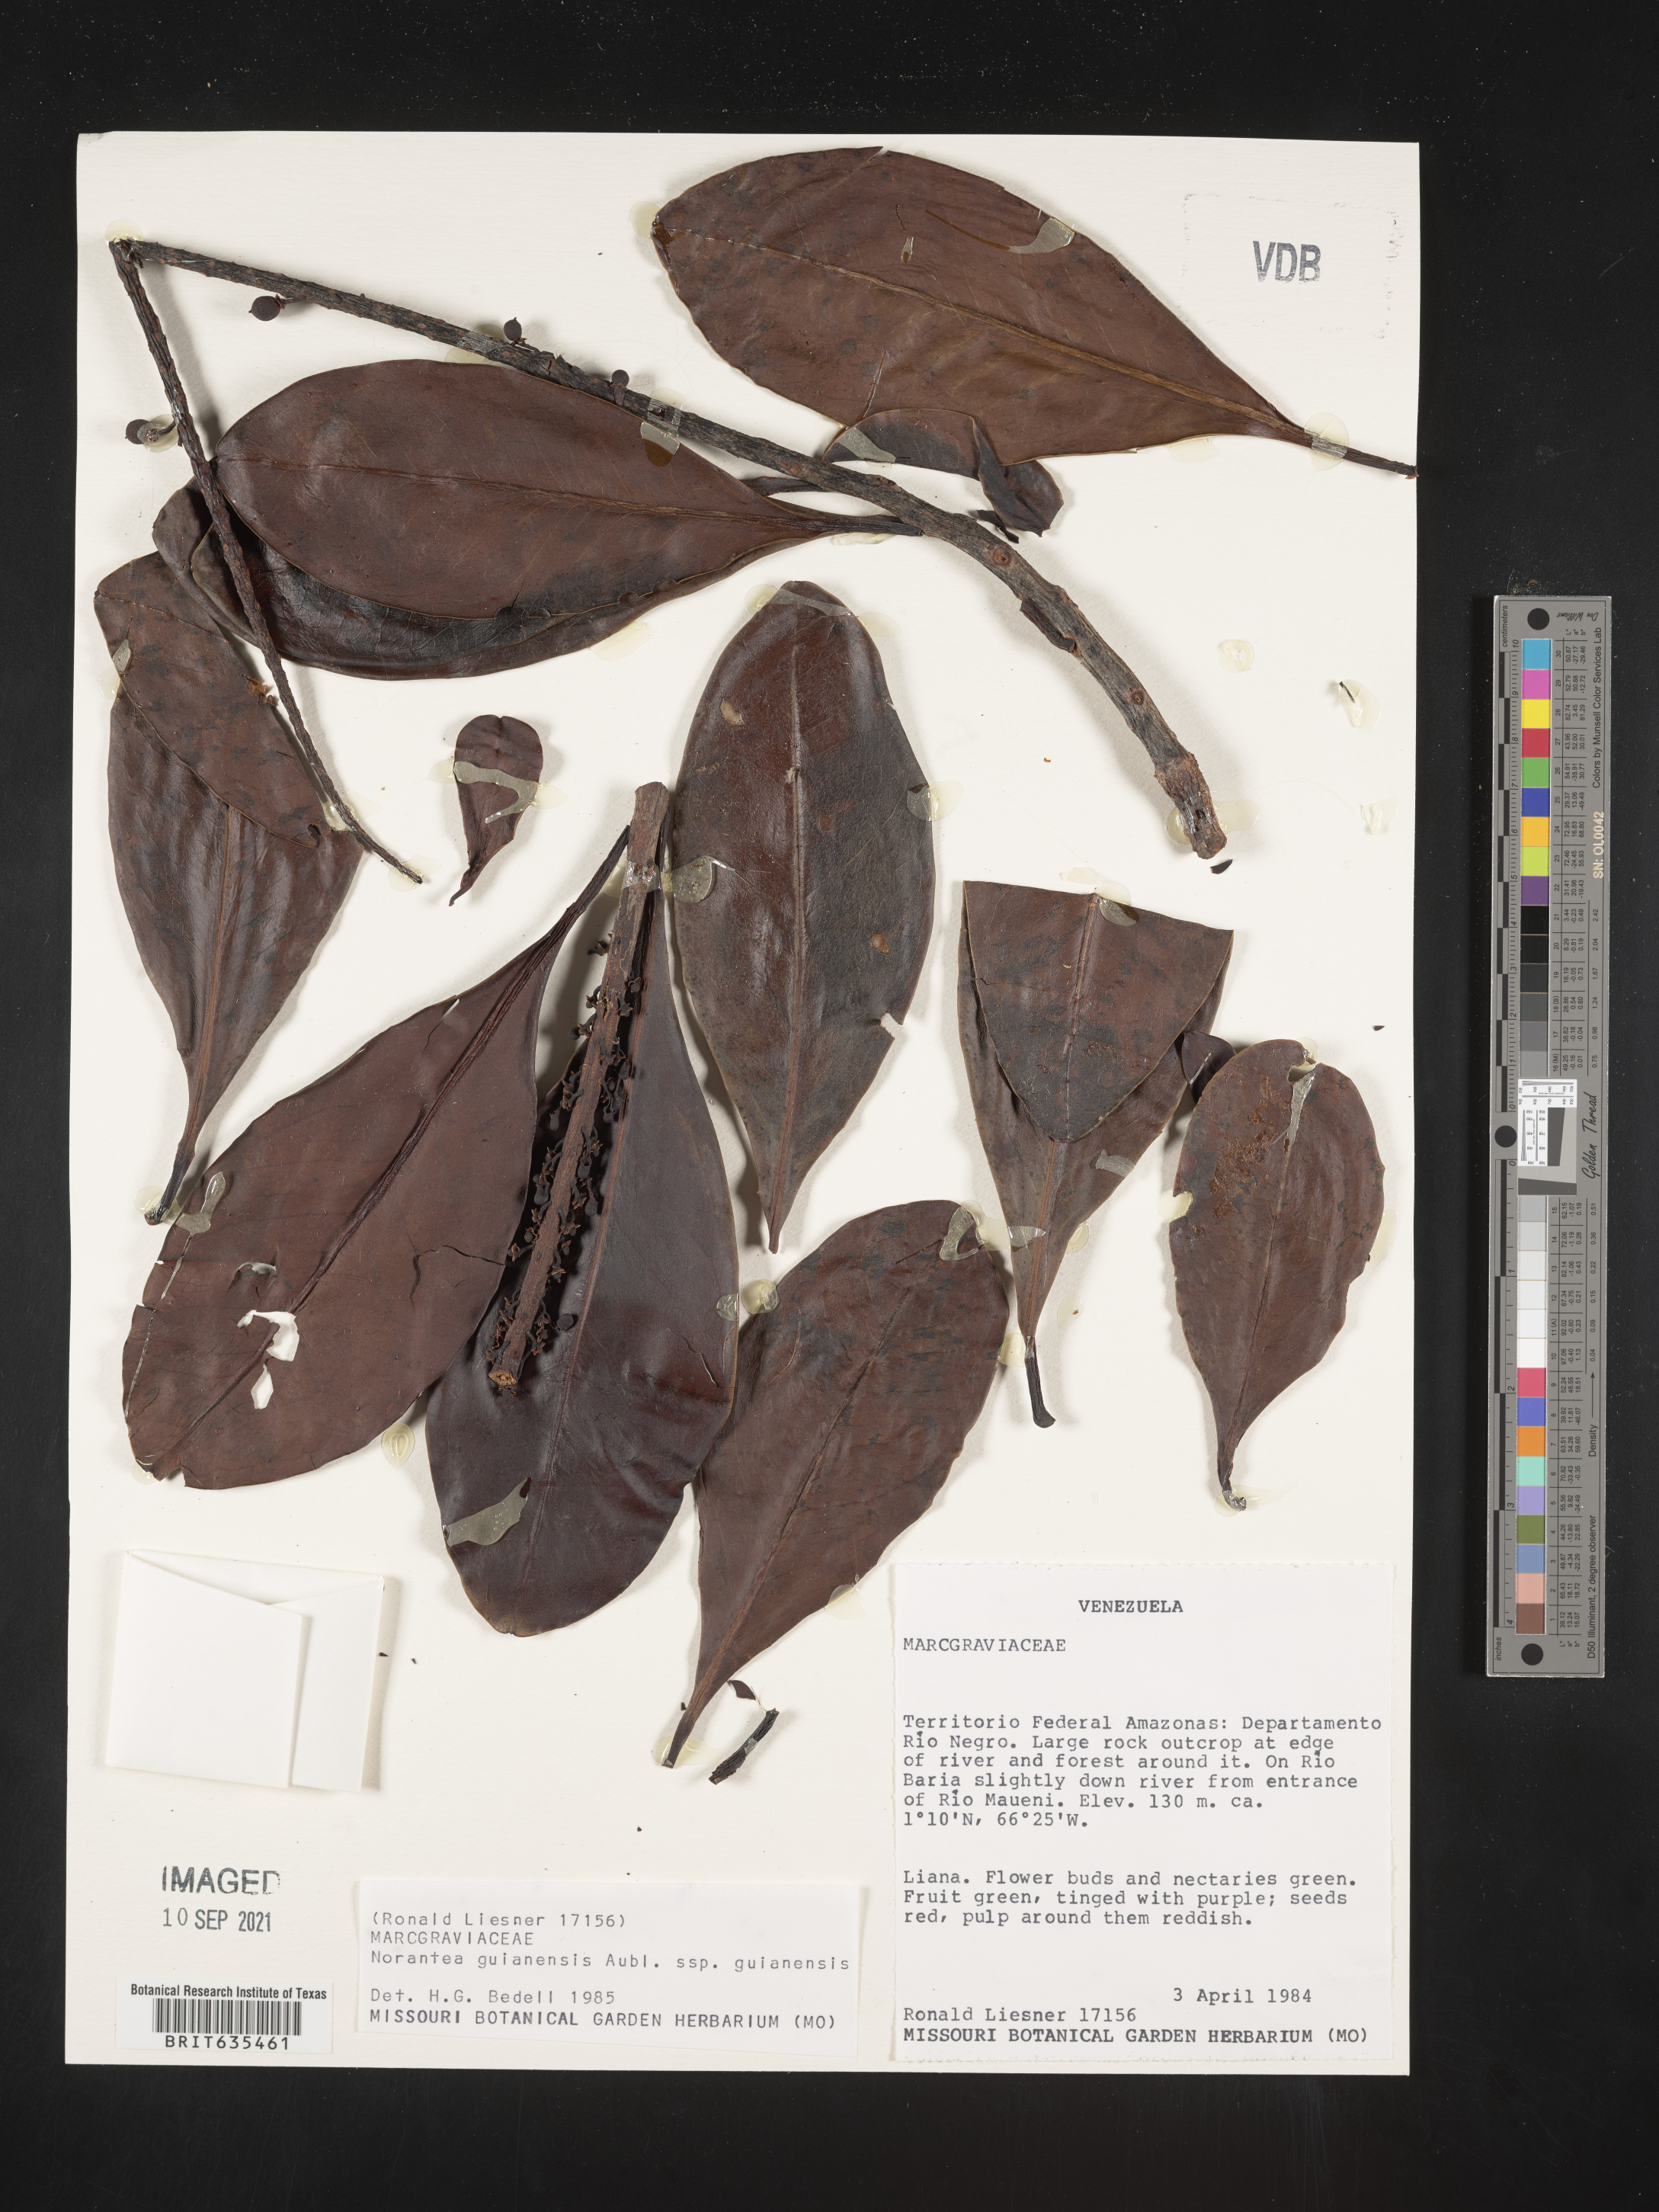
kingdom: Plantae
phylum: Tracheophyta
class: Magnoliopsida
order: Ericales
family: Marcgraviaceae
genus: Norantea
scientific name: Norantea
